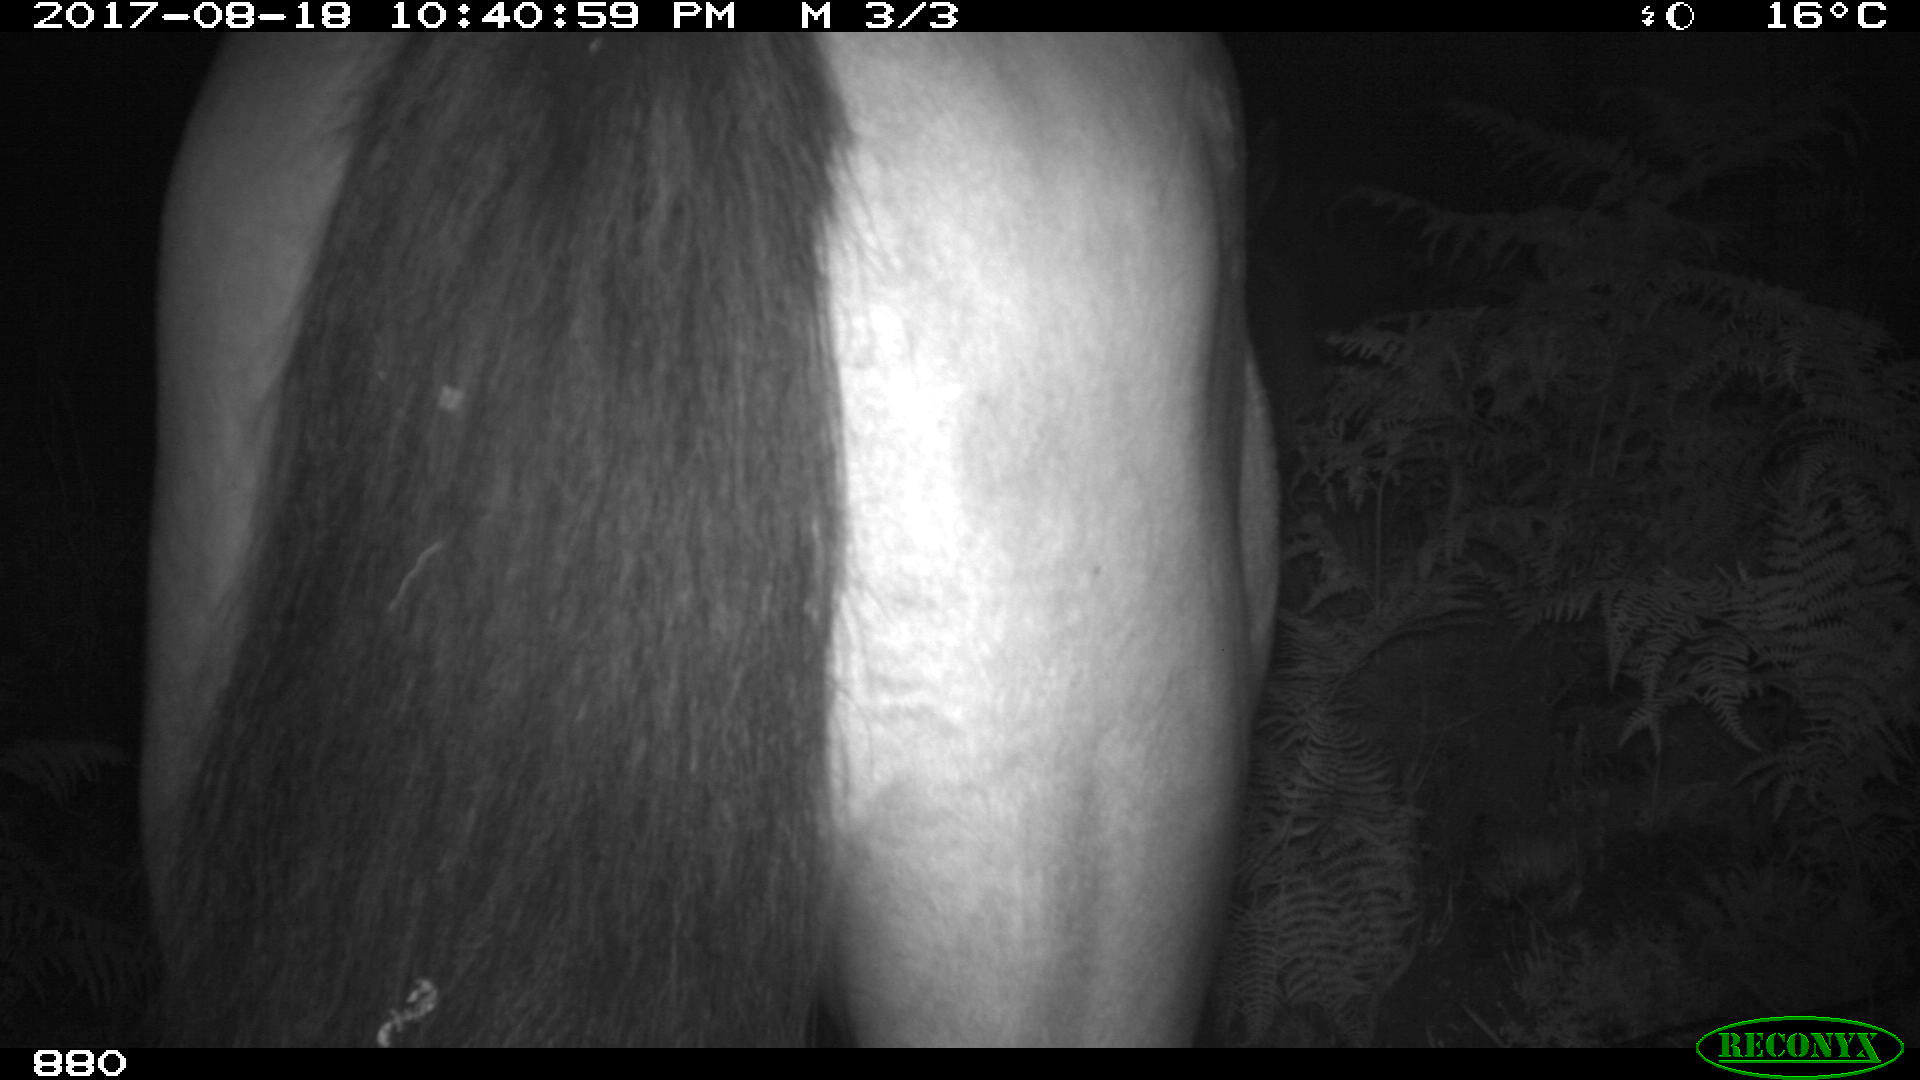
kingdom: Animalia
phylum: Chordata
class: Mammalia
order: Perissodactyla
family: Equidae
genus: Equus
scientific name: Equus caballus
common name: Horse
